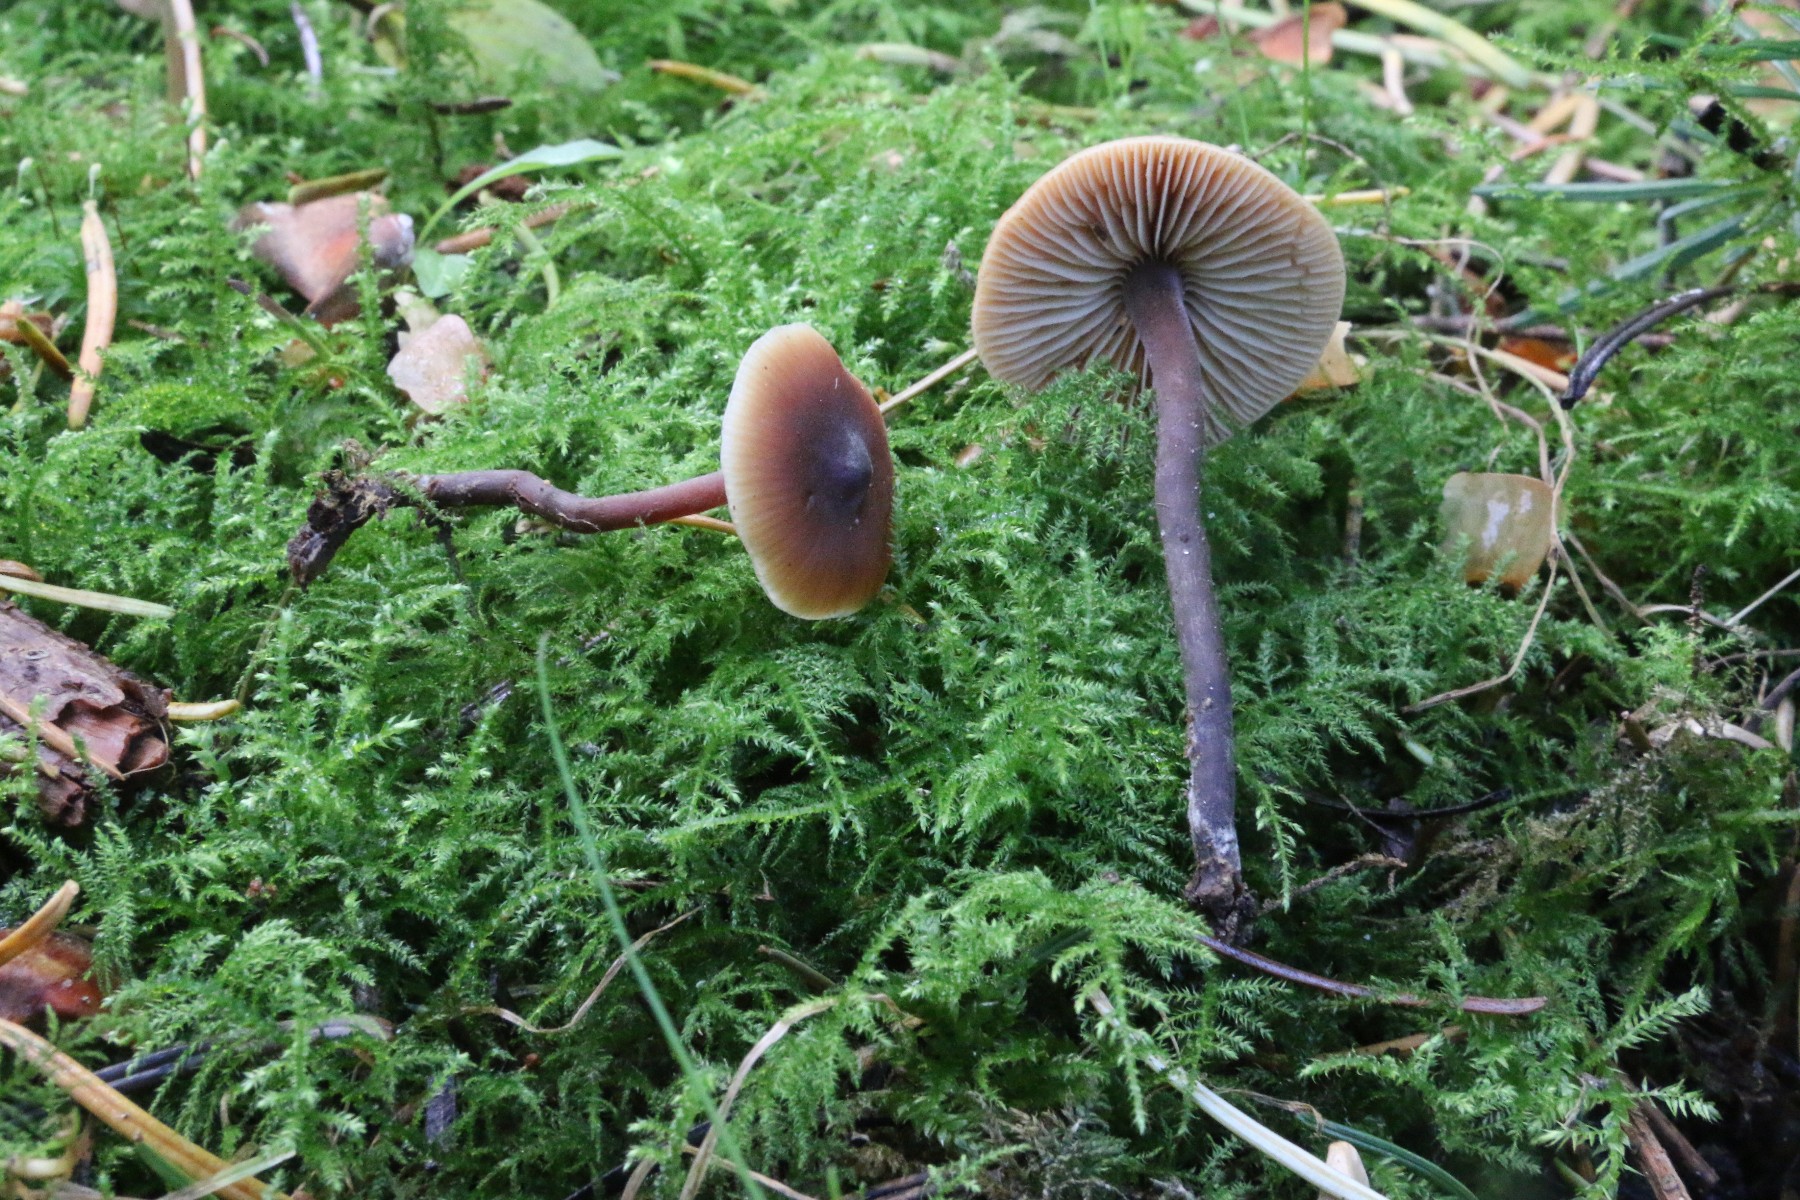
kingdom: Fungi
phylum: Basidiomycota
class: Agaricomycetes
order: Agaricales
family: Macrocystidiaceae
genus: Macrocystidia
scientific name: Macrocystidia cucumis
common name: agurkehat
